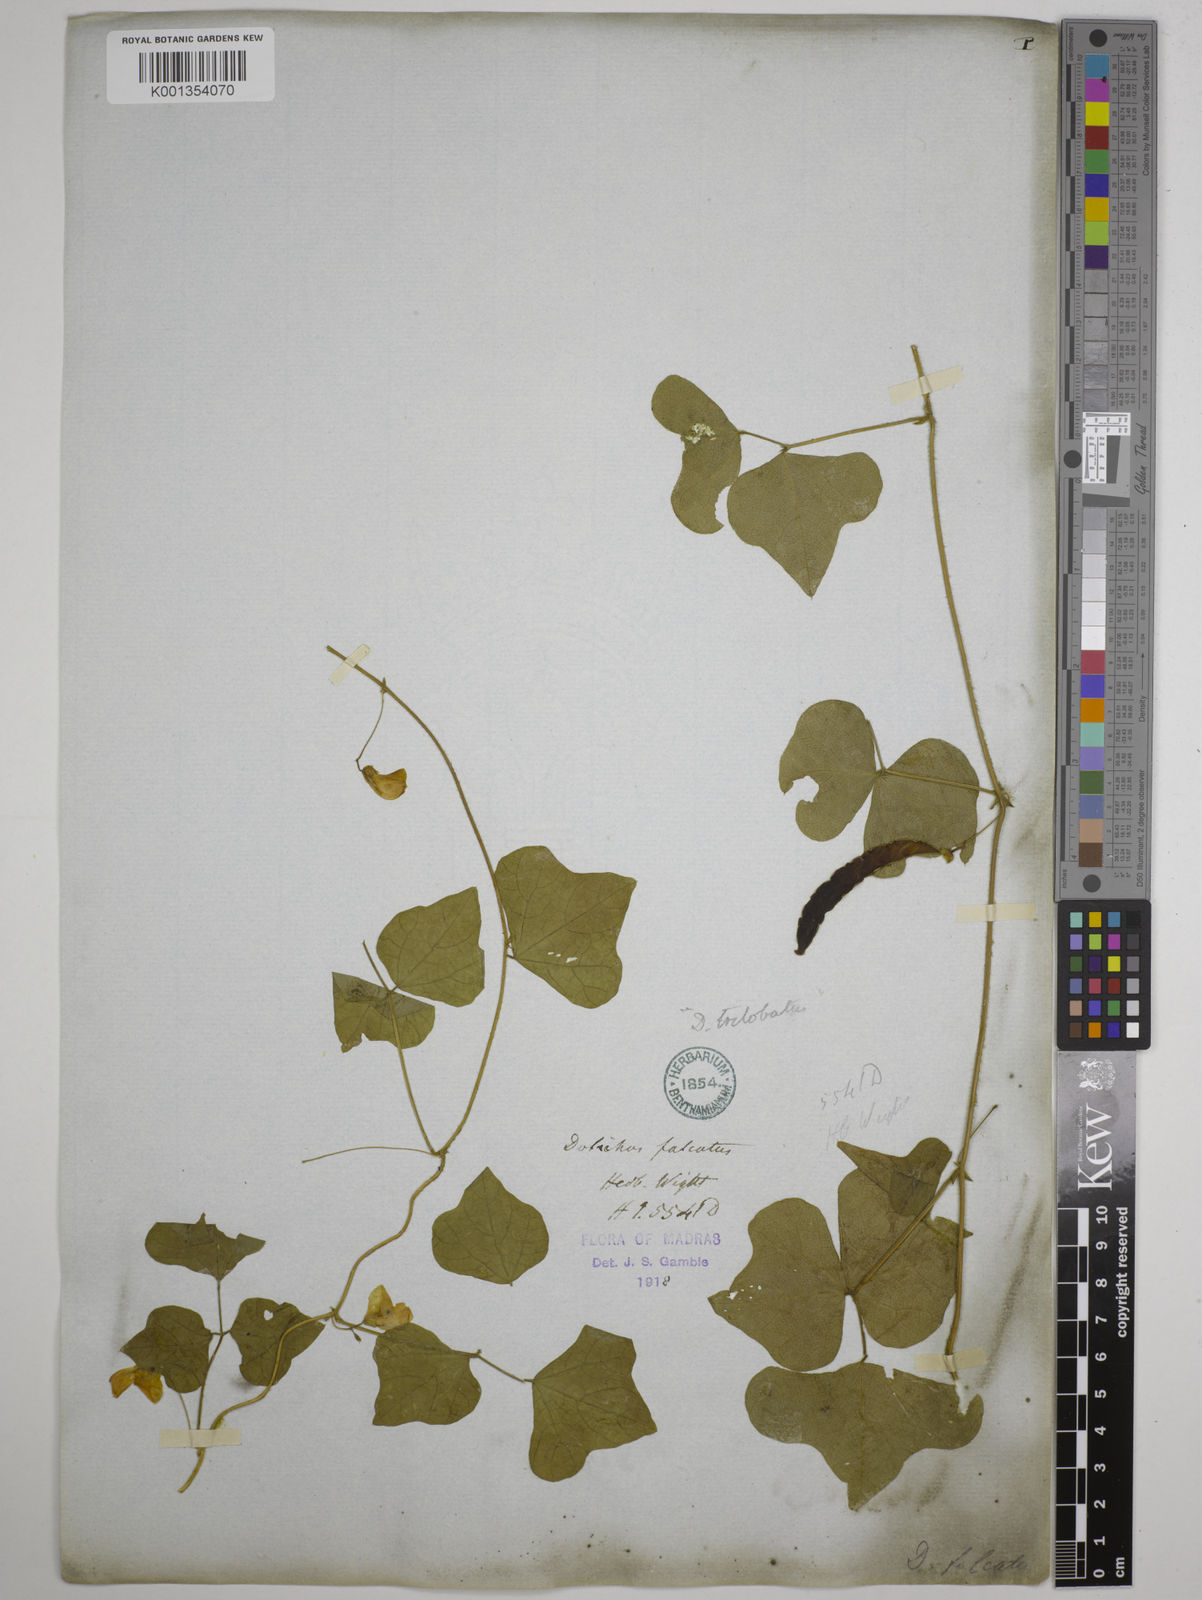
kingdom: Plantae
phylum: Tracheophyta
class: Magnoliopsida
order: Fabales
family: Fabaceae
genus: Dolichos
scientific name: Dolichos
